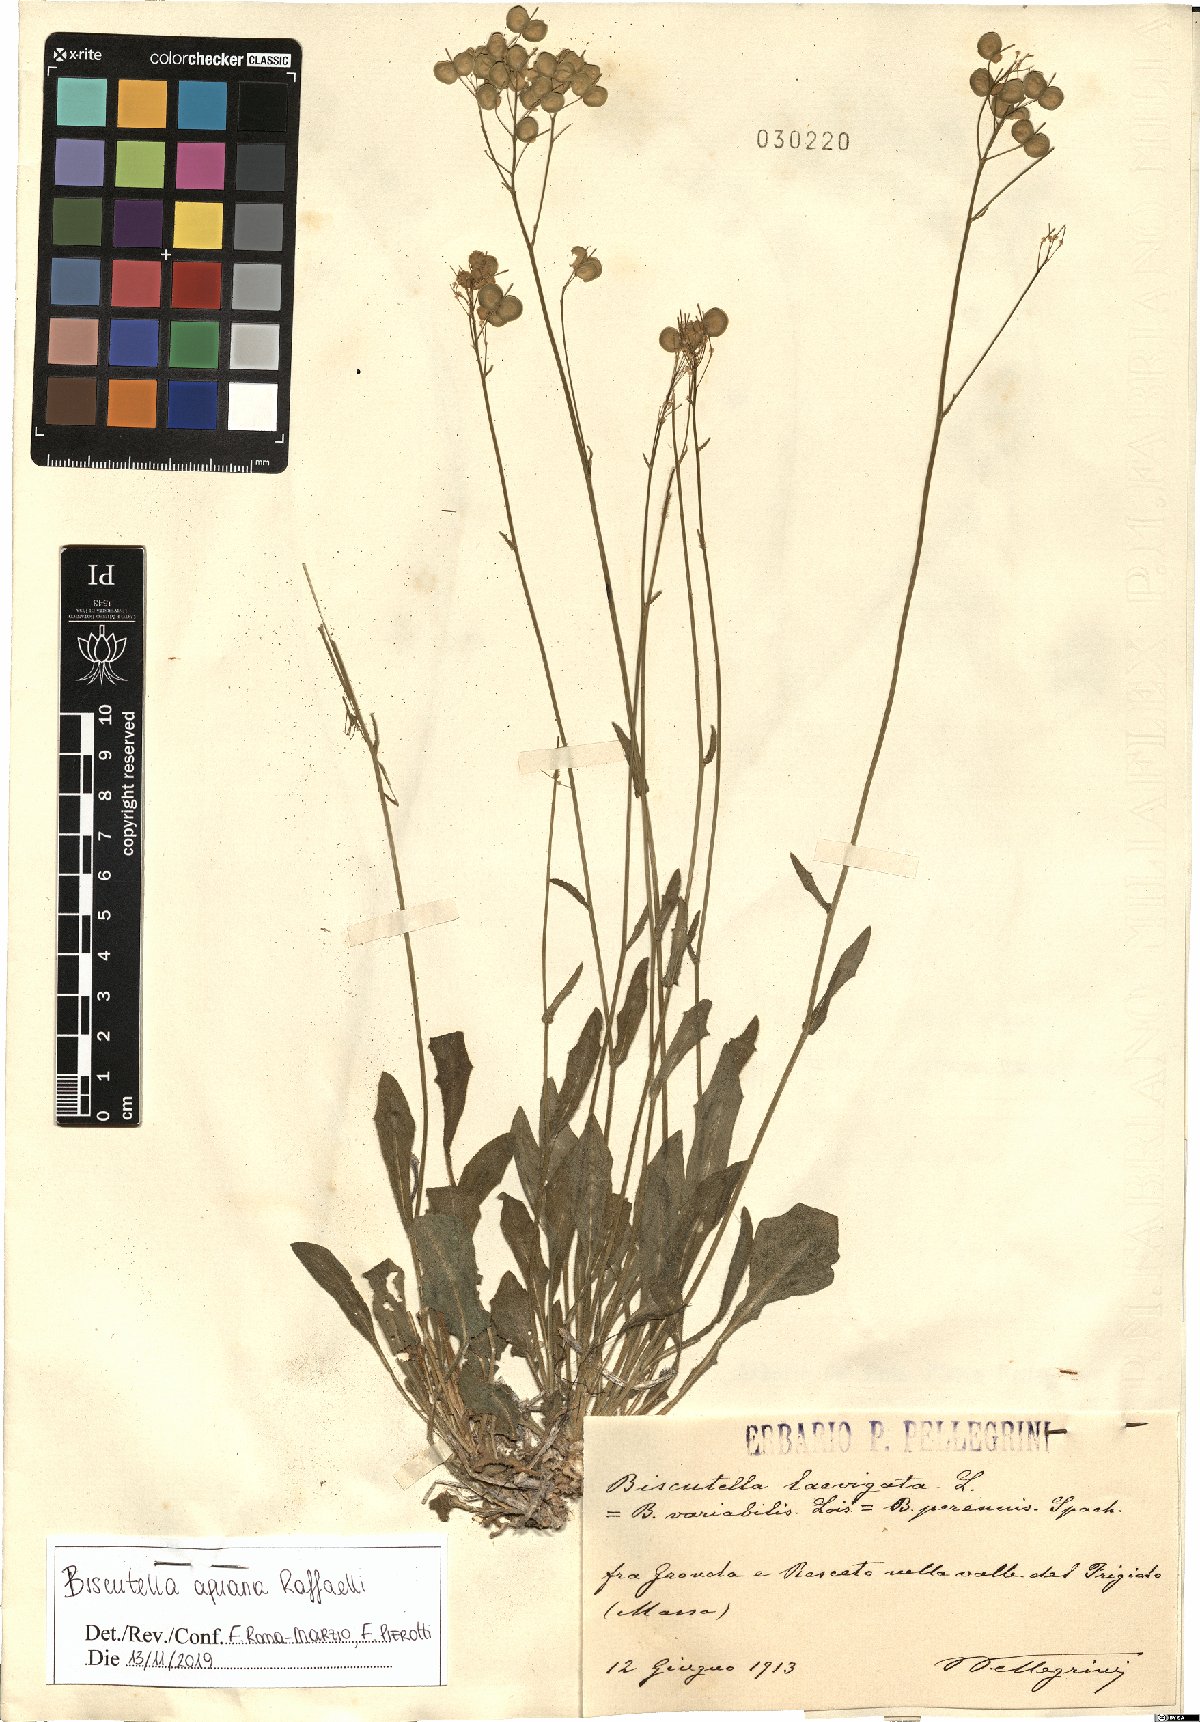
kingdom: Plantae
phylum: Tracheophyta
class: Magnoliopsida
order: Brassicales
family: Brassicaceae
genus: Biscutella
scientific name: Biscutella apuana
